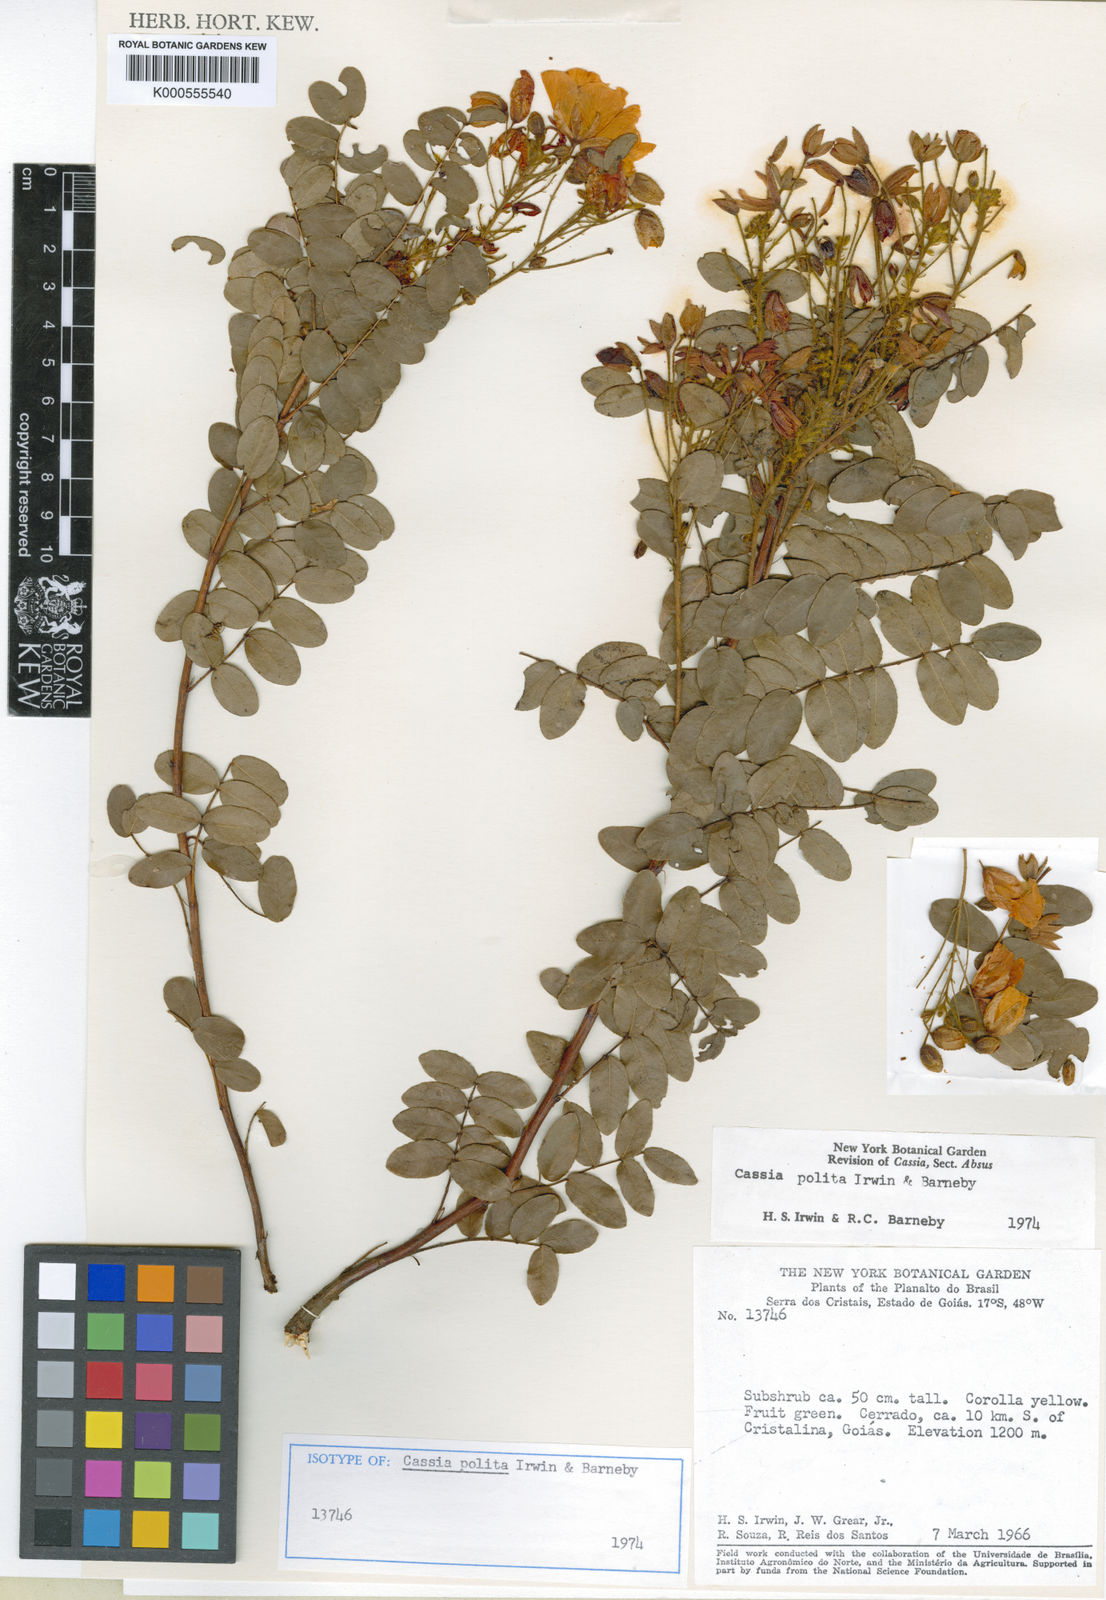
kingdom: Plantae
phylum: Tracheophyta
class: Magnoliopsida
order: Fabales
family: Fabaceae
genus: Chamaecrista
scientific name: Chamaecrista polita
